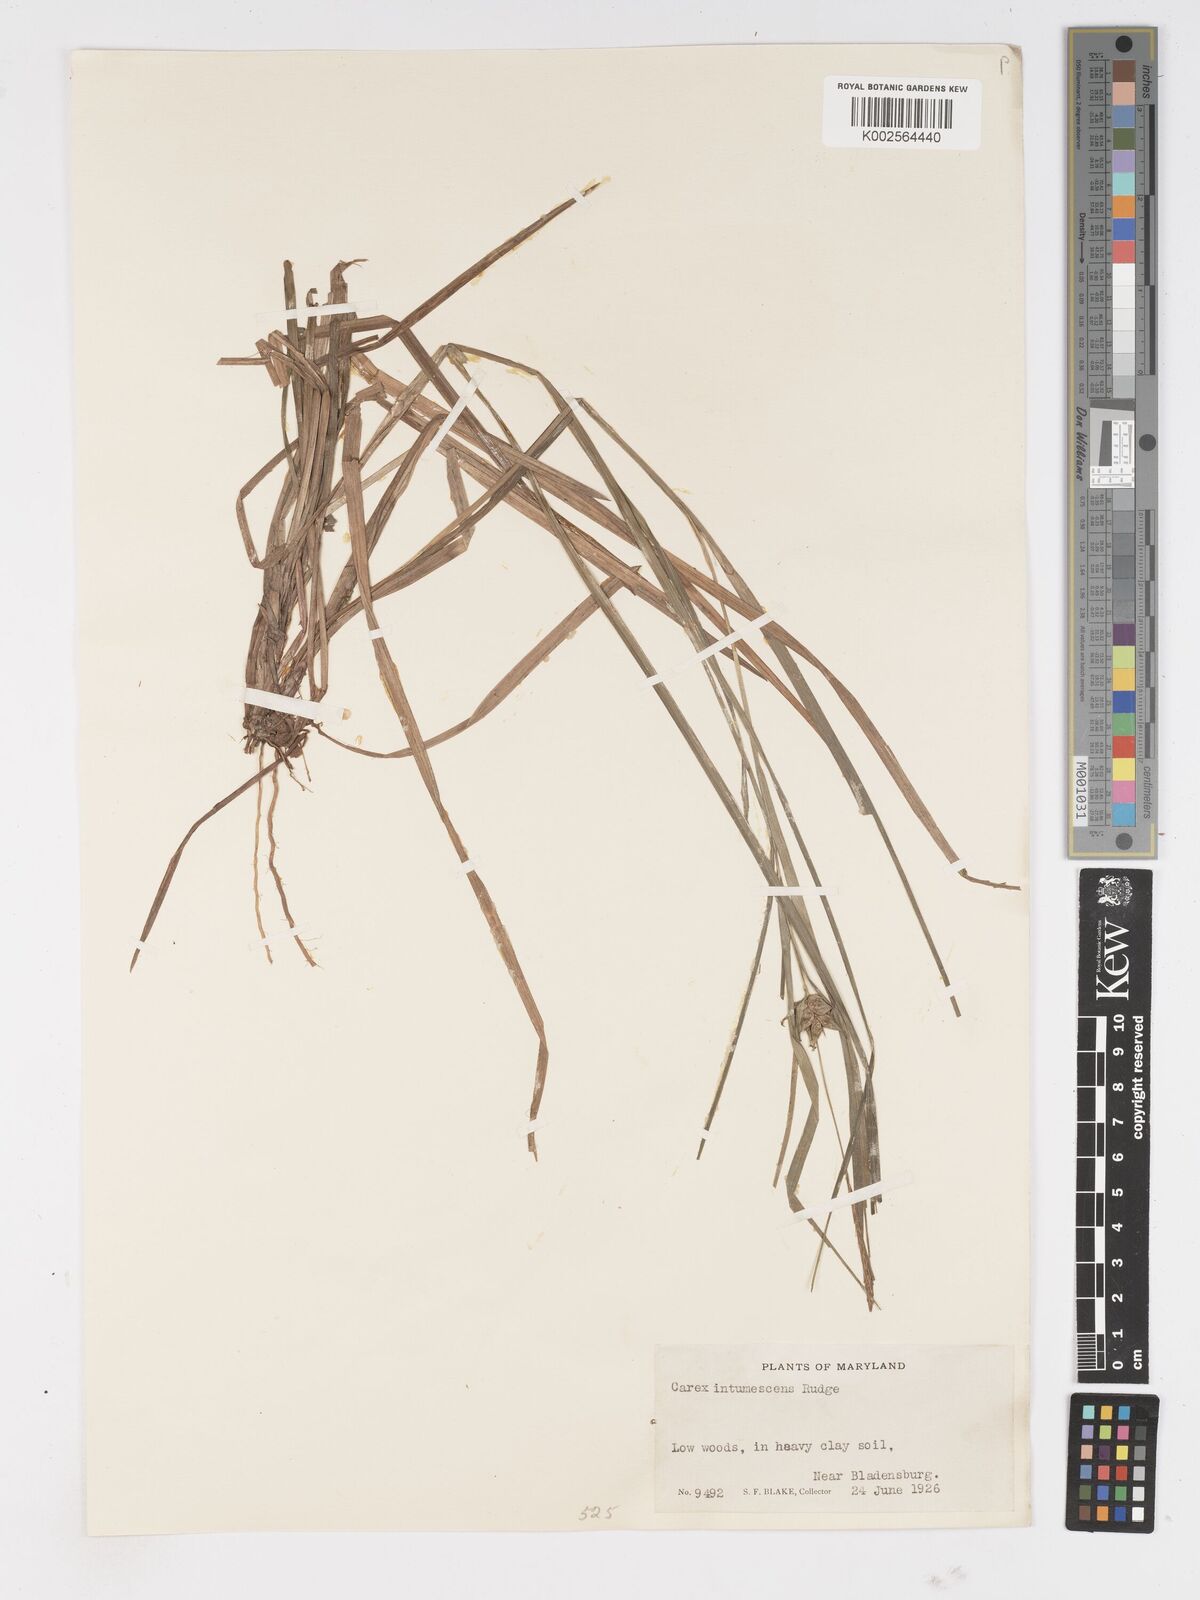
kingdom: Plantae
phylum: Tracheophyta
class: Liliopsida
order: Poales
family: Cyperaceae
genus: Carex
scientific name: Carex intumescens
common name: Greater bladder sedge
